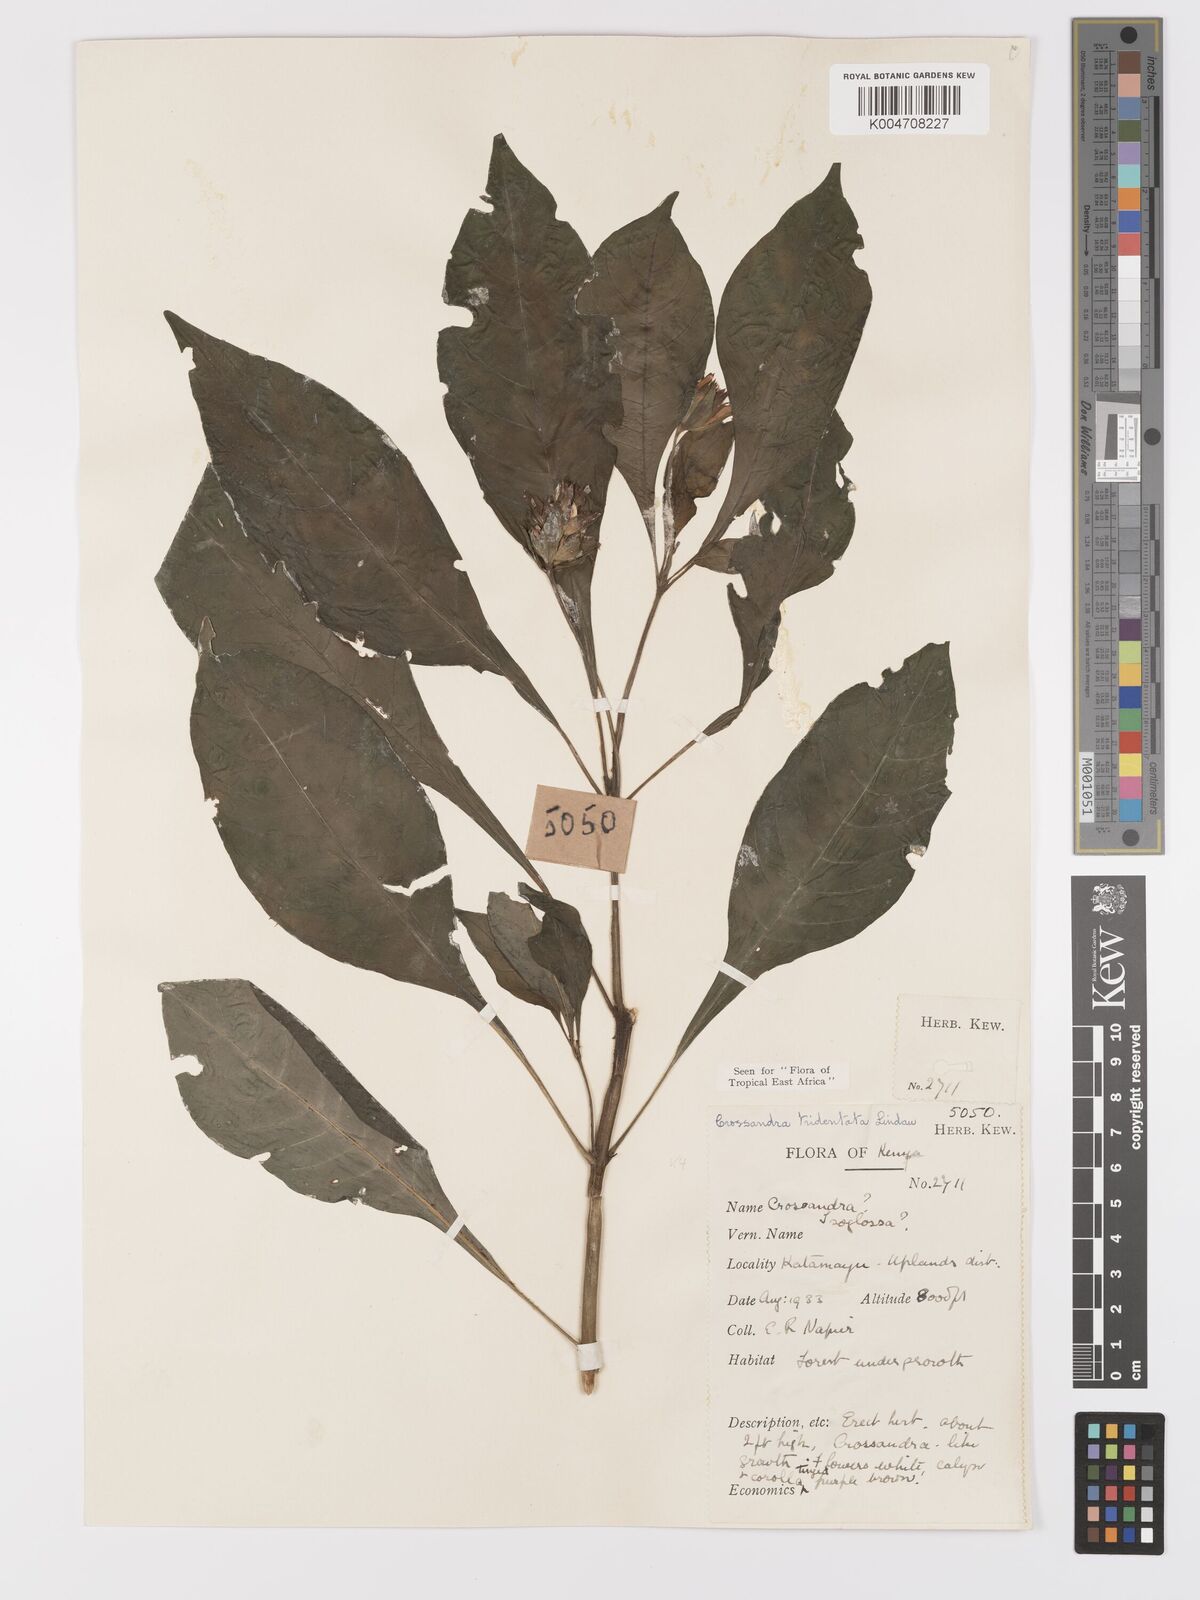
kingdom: Plantae
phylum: Tracheophyta
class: Magnoliopsida
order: Lamiales
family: Acanthaceae
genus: Crossandra
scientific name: Crossandra tridentata
